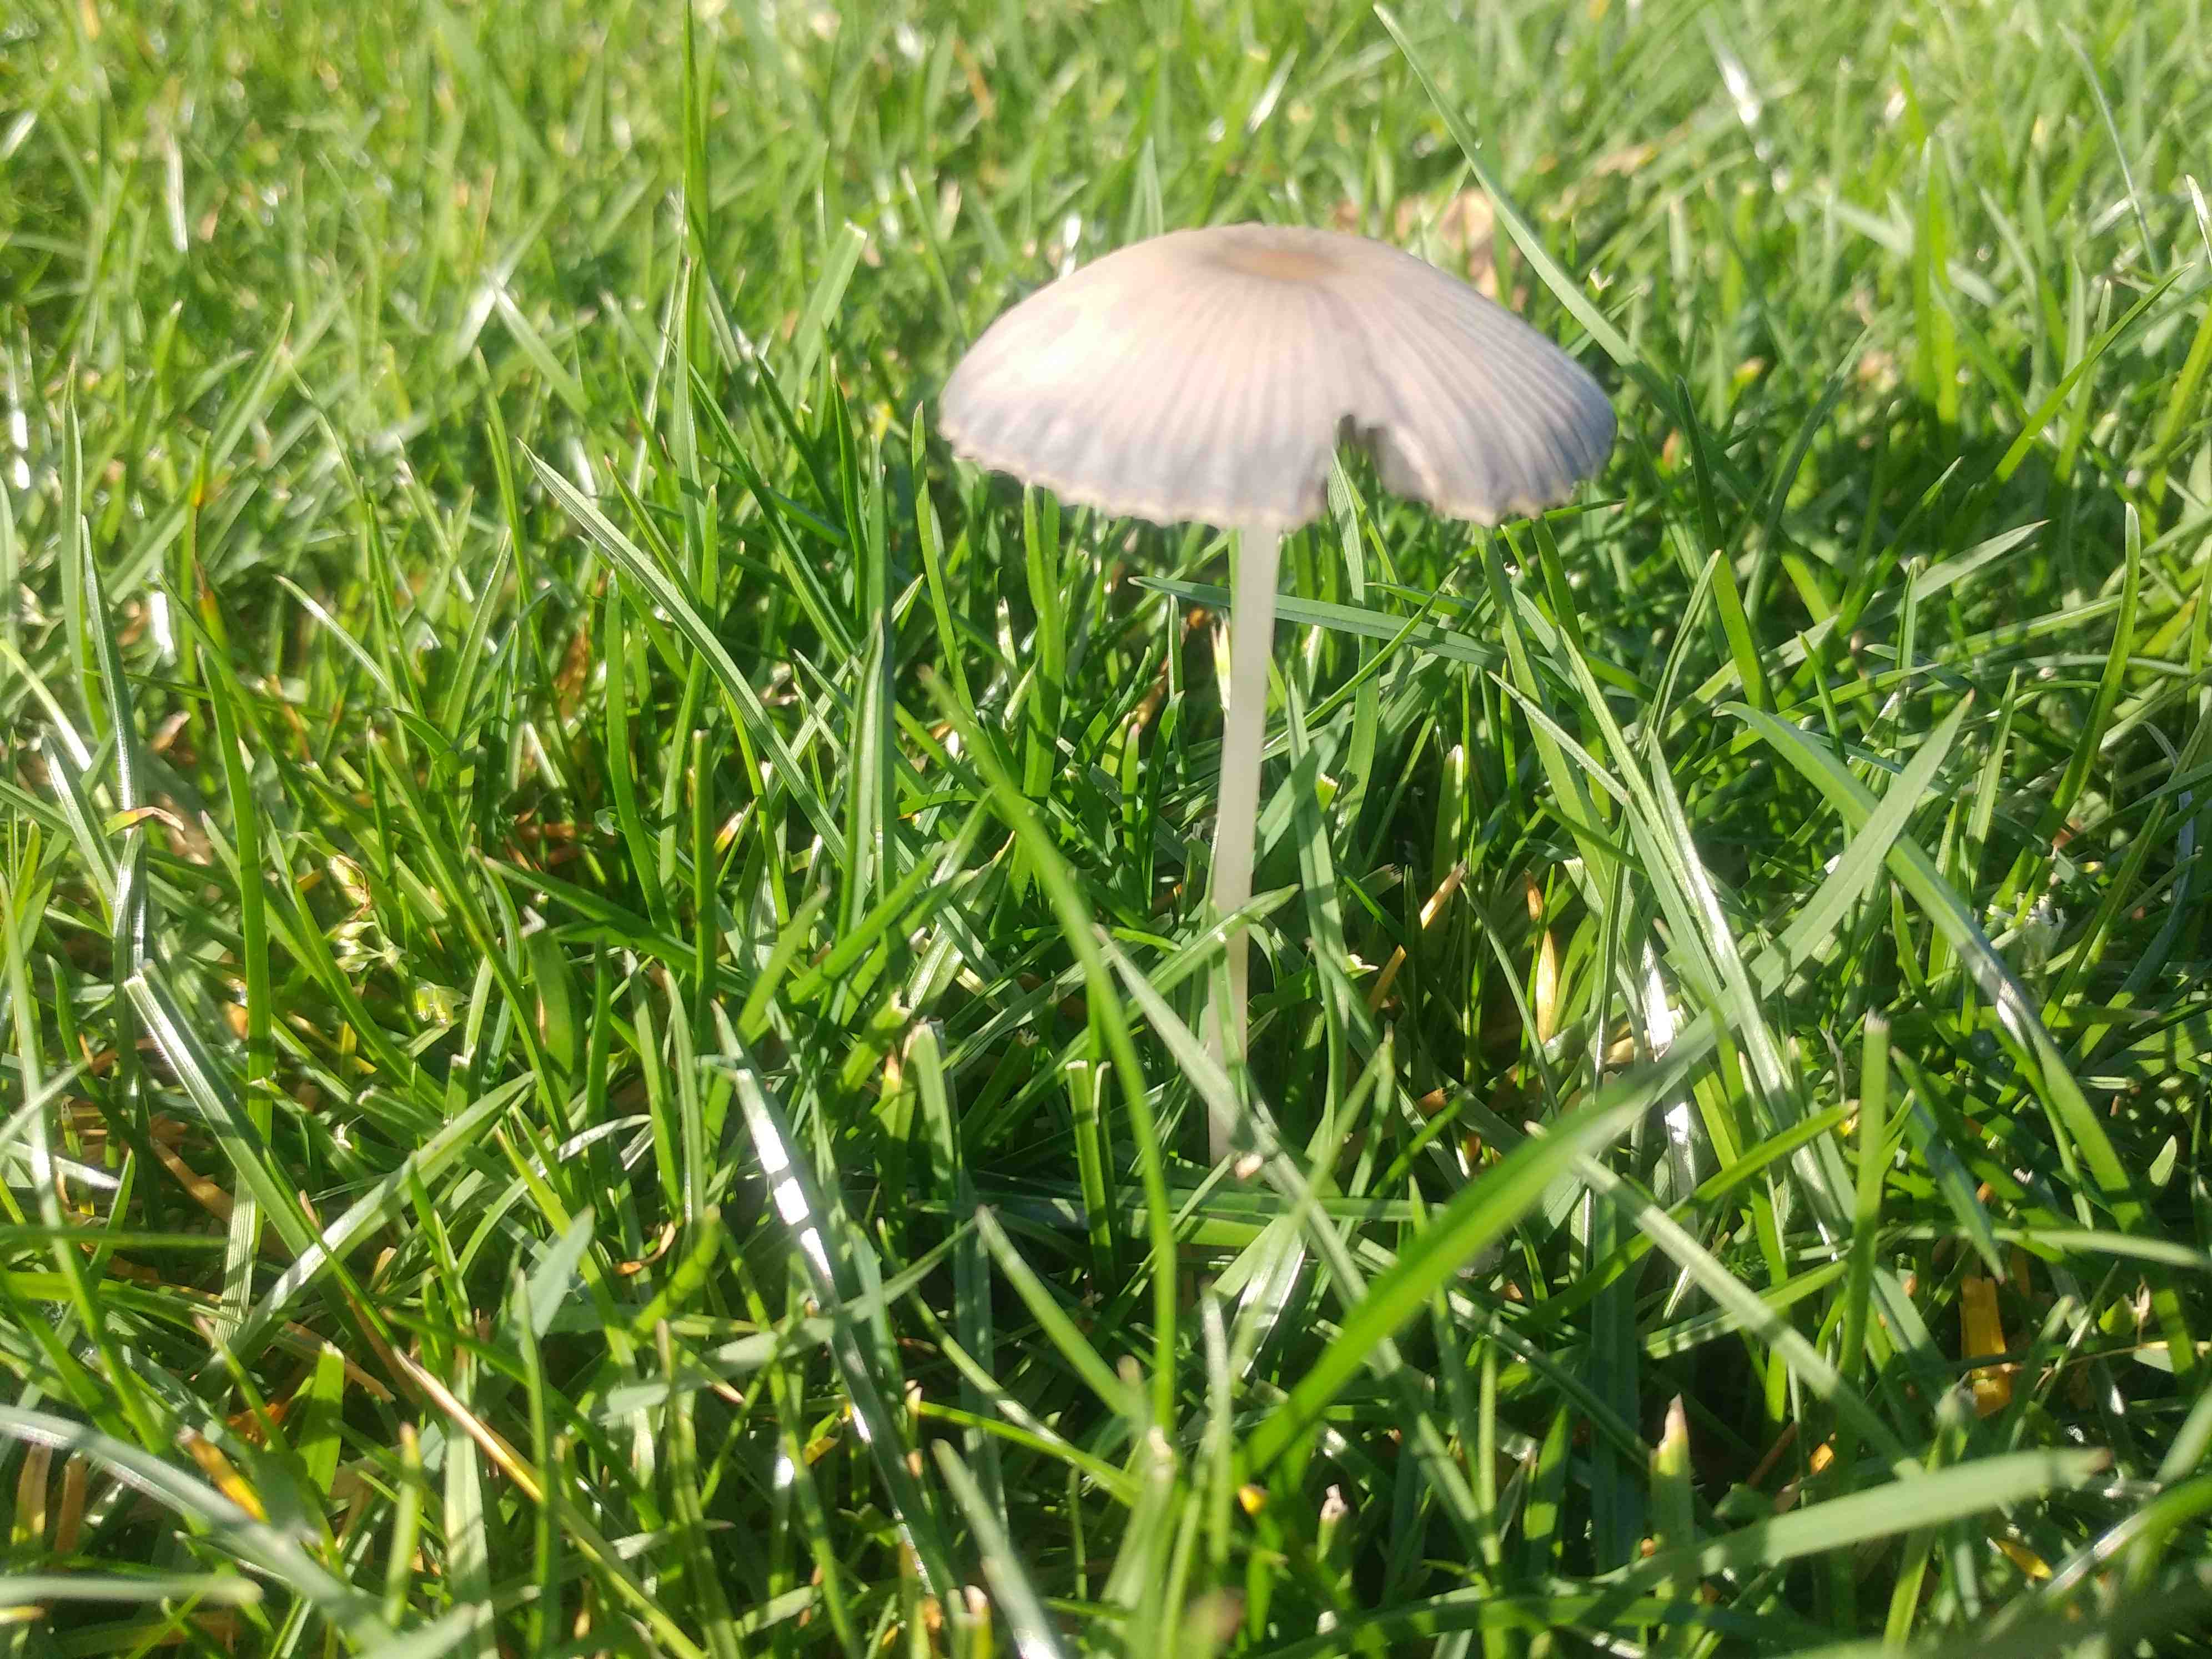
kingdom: Fungi
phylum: Basidiomycota
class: Agaricomycetes
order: Agaricales
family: Psathyrellaceae
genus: Parasola
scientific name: Parasola
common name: hjulhat
